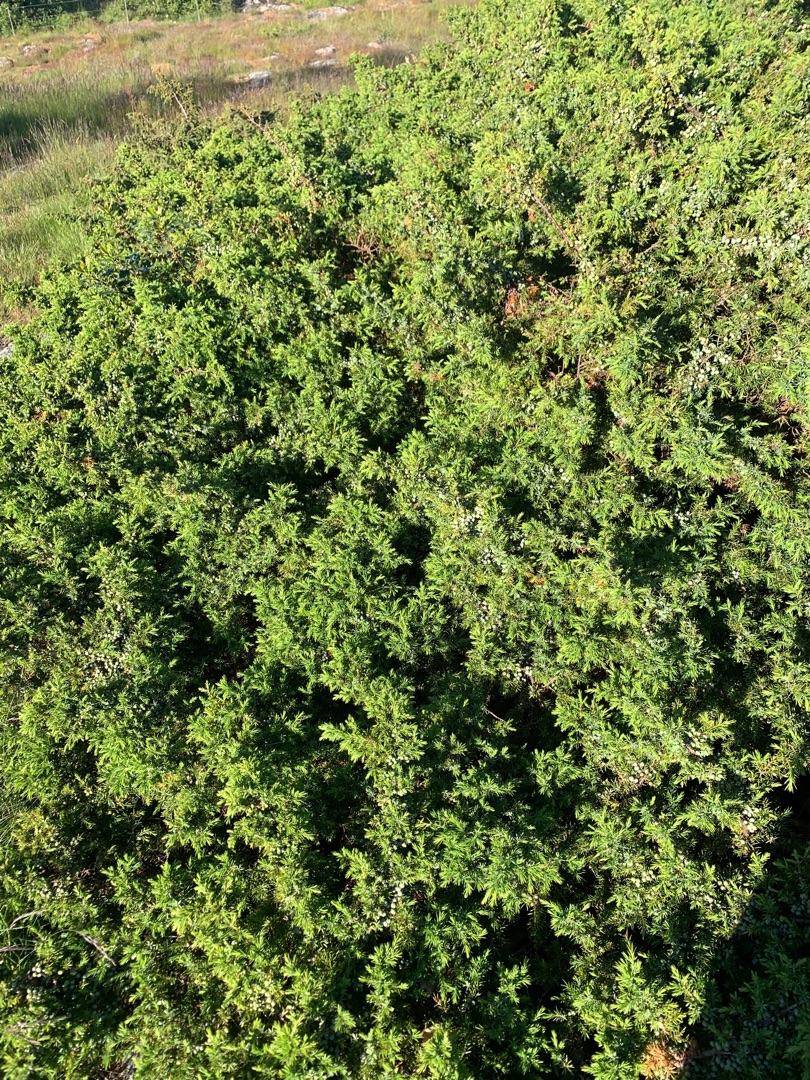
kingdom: Plantae
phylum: Tracheophyta
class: Pinopsida
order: Pinales
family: Cupressaceae
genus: Juniperus
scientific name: Juniperus communis
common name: Almindelig ene
